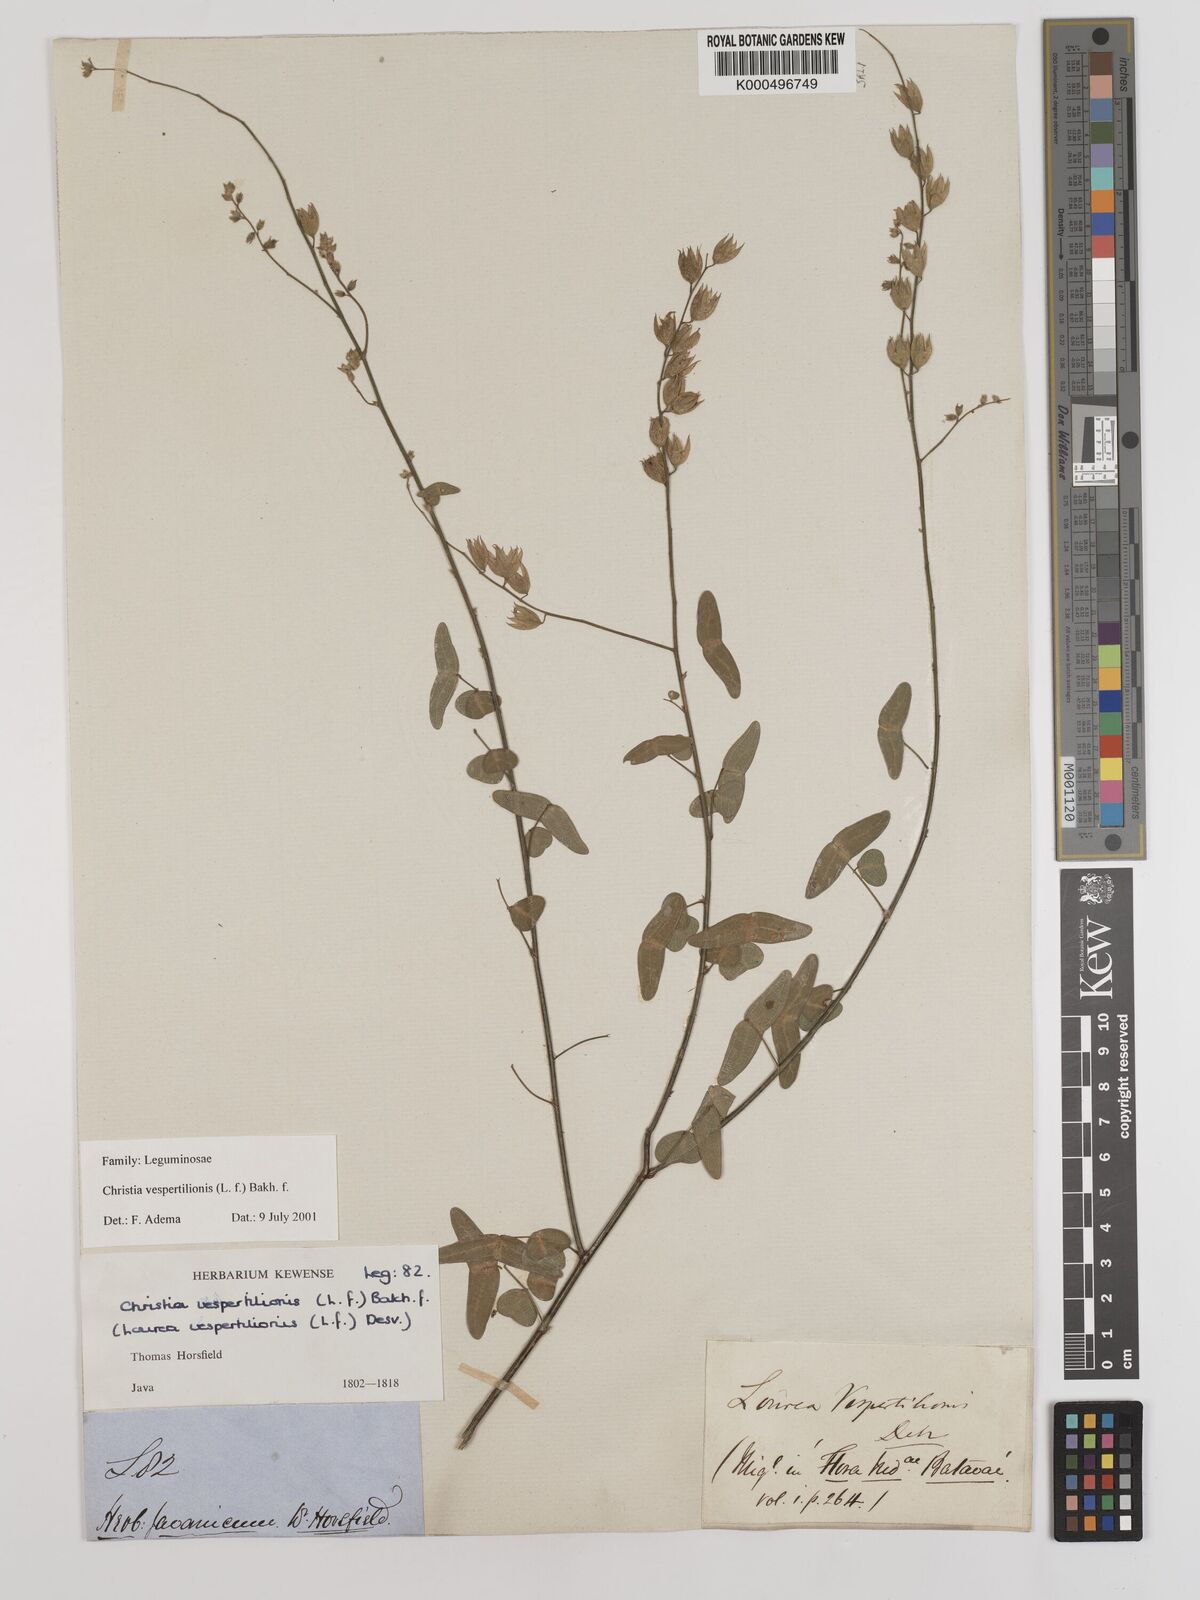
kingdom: Plantae
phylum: Tracheophyta
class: Magnoliopsida
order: Fabales
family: Fabaceae
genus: Christia
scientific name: Christia vespertilionis
